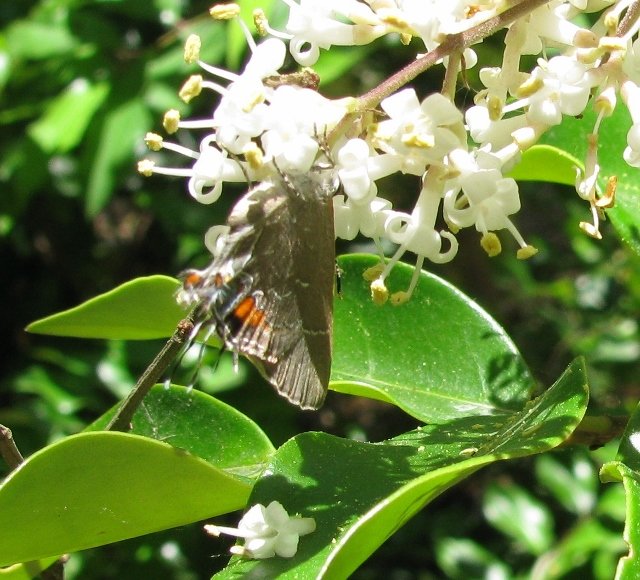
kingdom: Animalia
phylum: Arthropoda
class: Insecta
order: Lepidoptera
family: Lycaenidae
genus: Fixsenia
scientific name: Fixsenia favonius
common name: Oak Hairstreak
